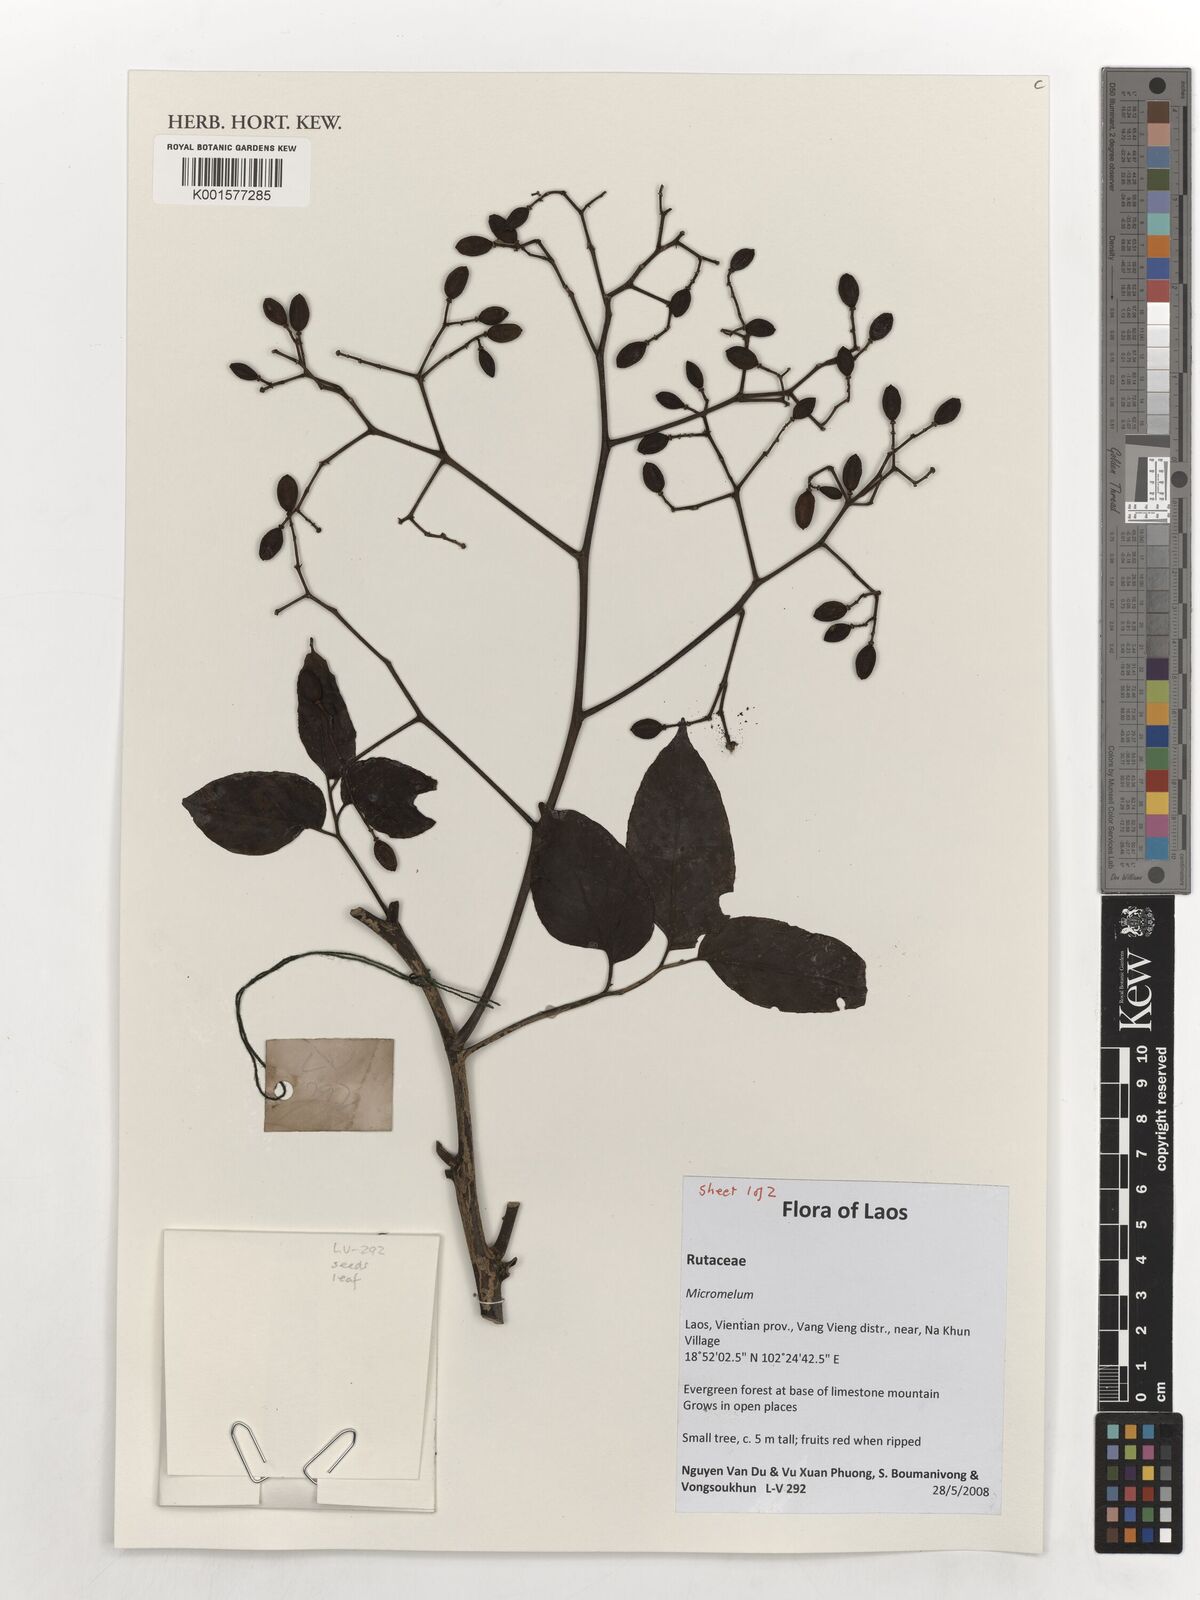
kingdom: Plantae
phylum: Tracheophyta
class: Magnoliopsida
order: Sapindales
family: Rutaceae
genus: Micromelum
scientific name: Micromelum
